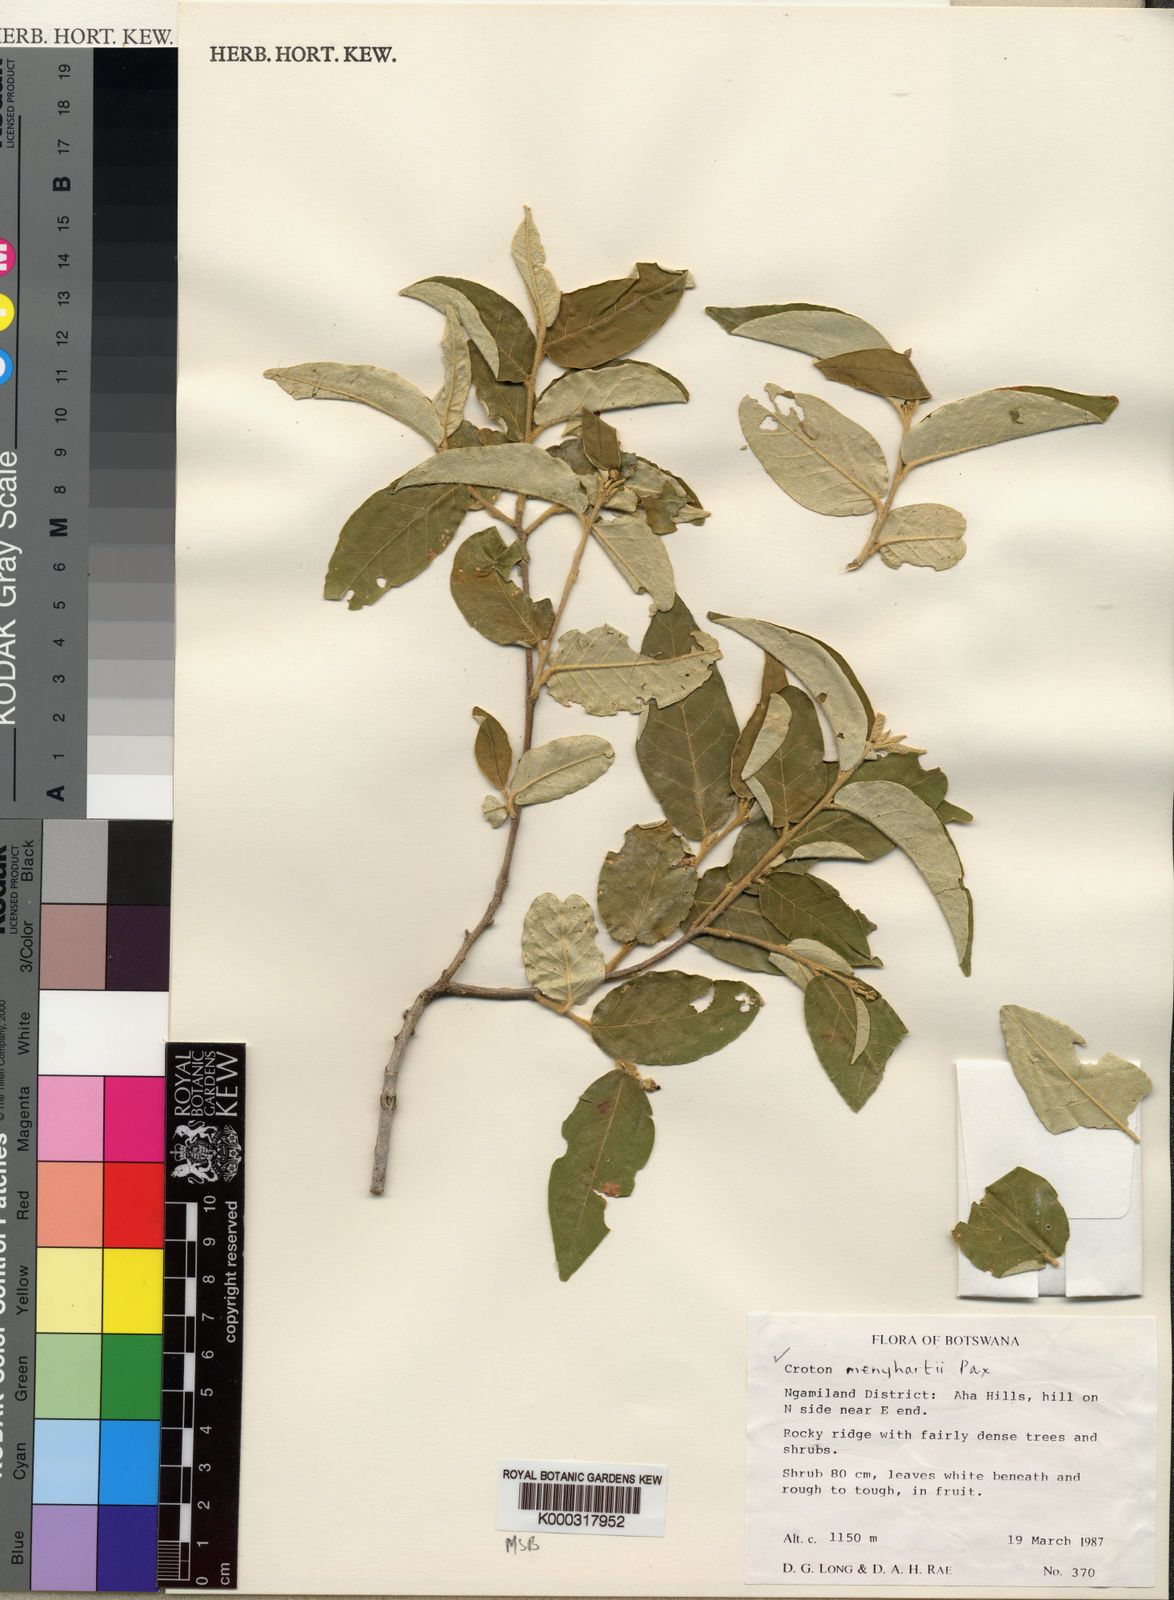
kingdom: Plantae
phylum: Tracheophyta
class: Magnoliopsida
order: Malpighiales
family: Euphorbiaceae
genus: Croton
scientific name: Croton menyharthii
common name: Rough-leaved croton
